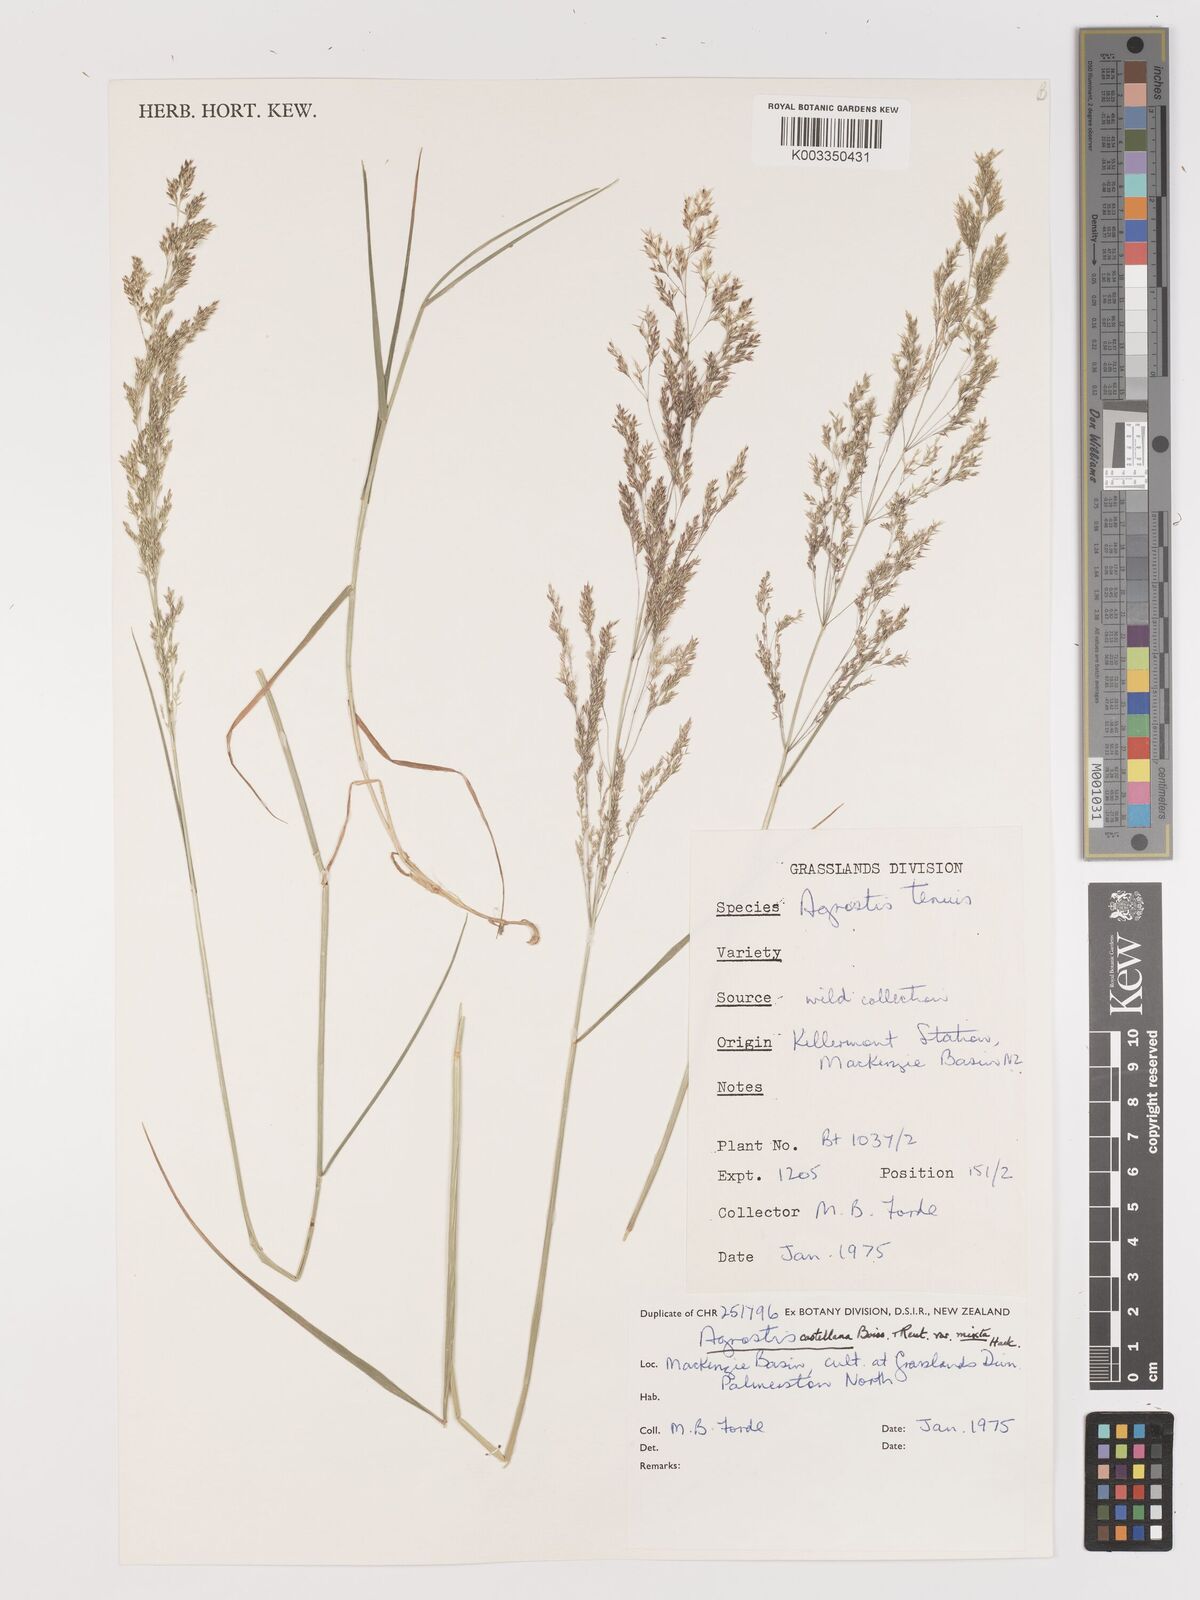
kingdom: Plantae
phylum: Tracheophyta
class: Liliopsida
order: Poales
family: Poaceae
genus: Agrostis
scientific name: Agrostis castellana
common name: Highland bent
